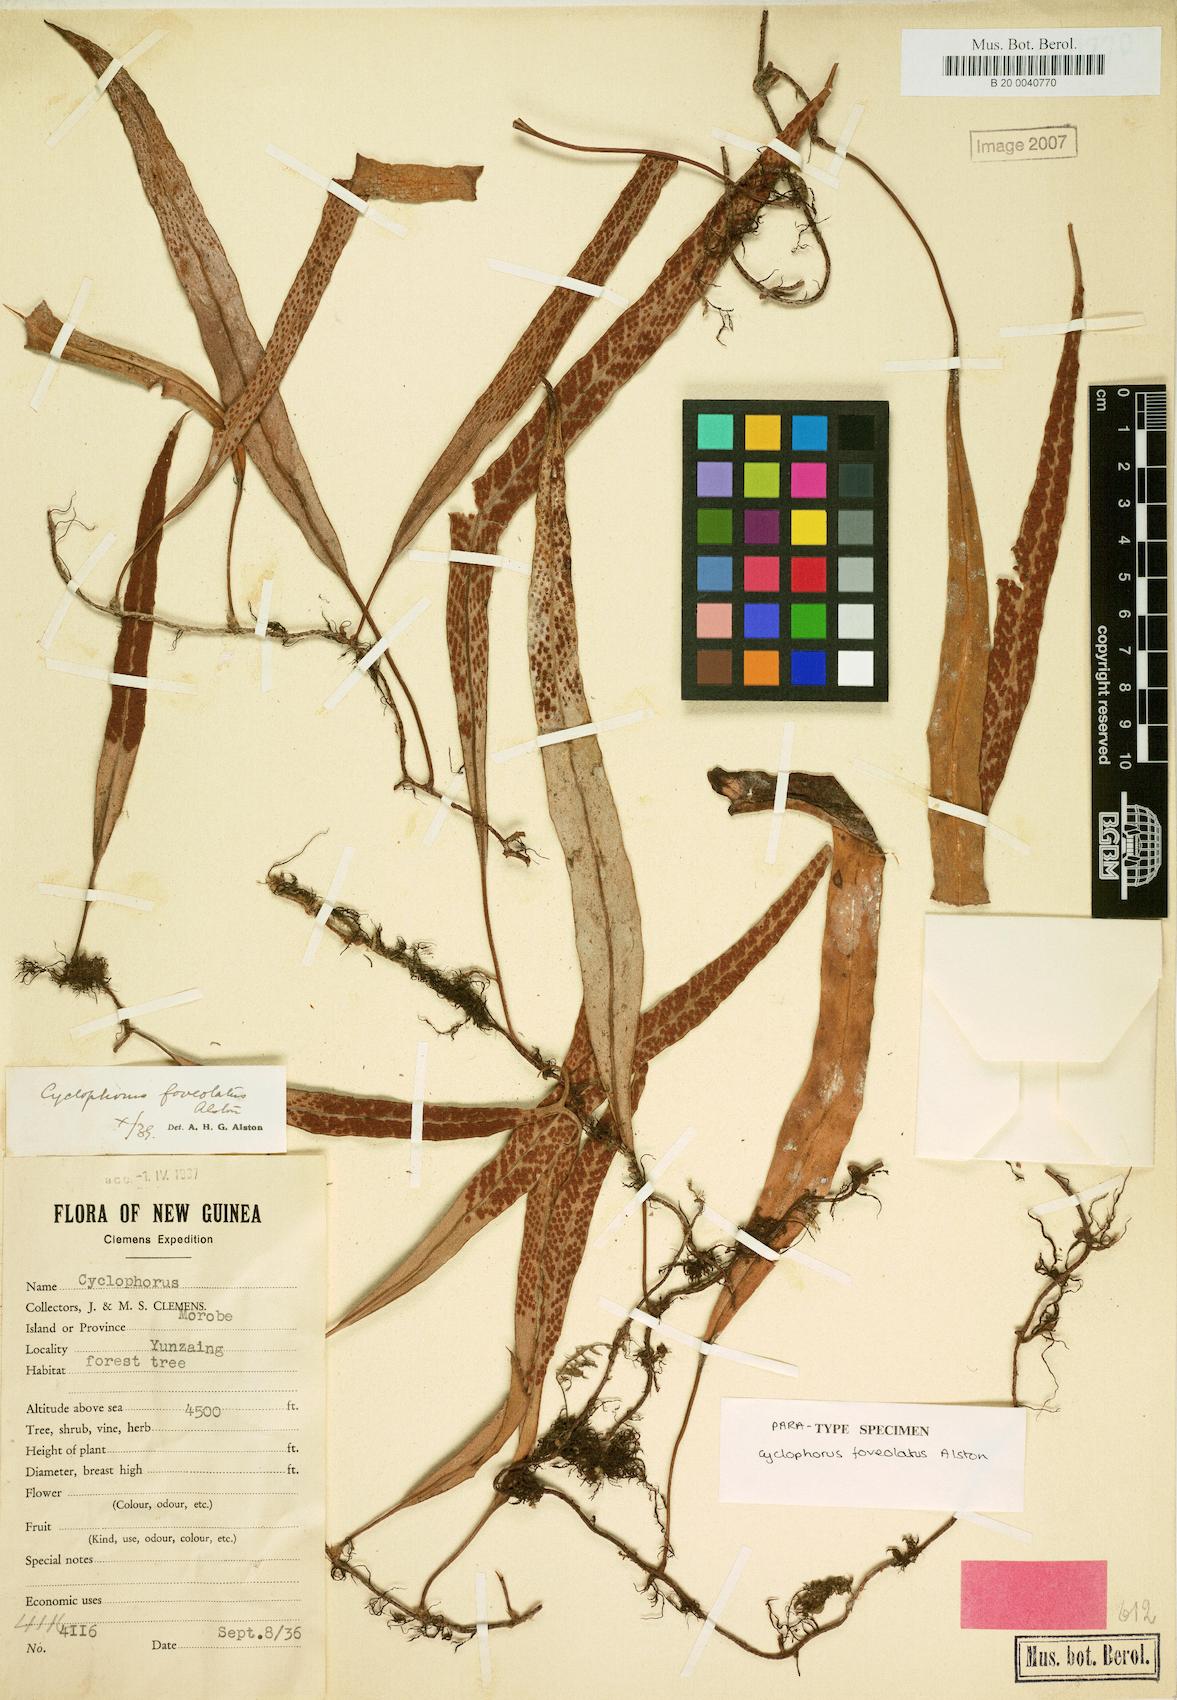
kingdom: Plantae
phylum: Tracheophyta
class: Polypodiopsida
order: Polypodiales
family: Polypodiaceae
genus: Pyrrosia
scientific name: Pyrrosia foveolata
